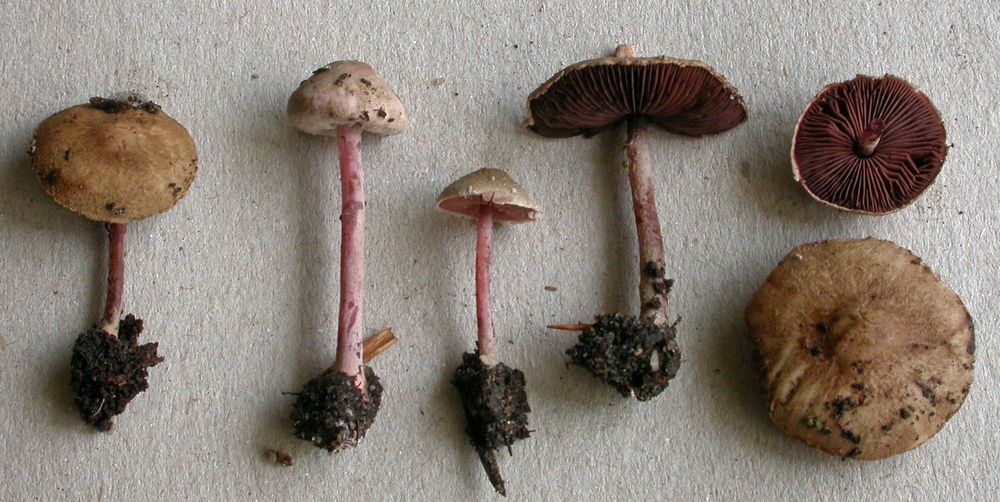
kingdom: Fungi
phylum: Basidiomycota
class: Agaricomycetes
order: Agaricales
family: Agaricaceae
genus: Melanophyllum
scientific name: Melanophyllum haematospermum
